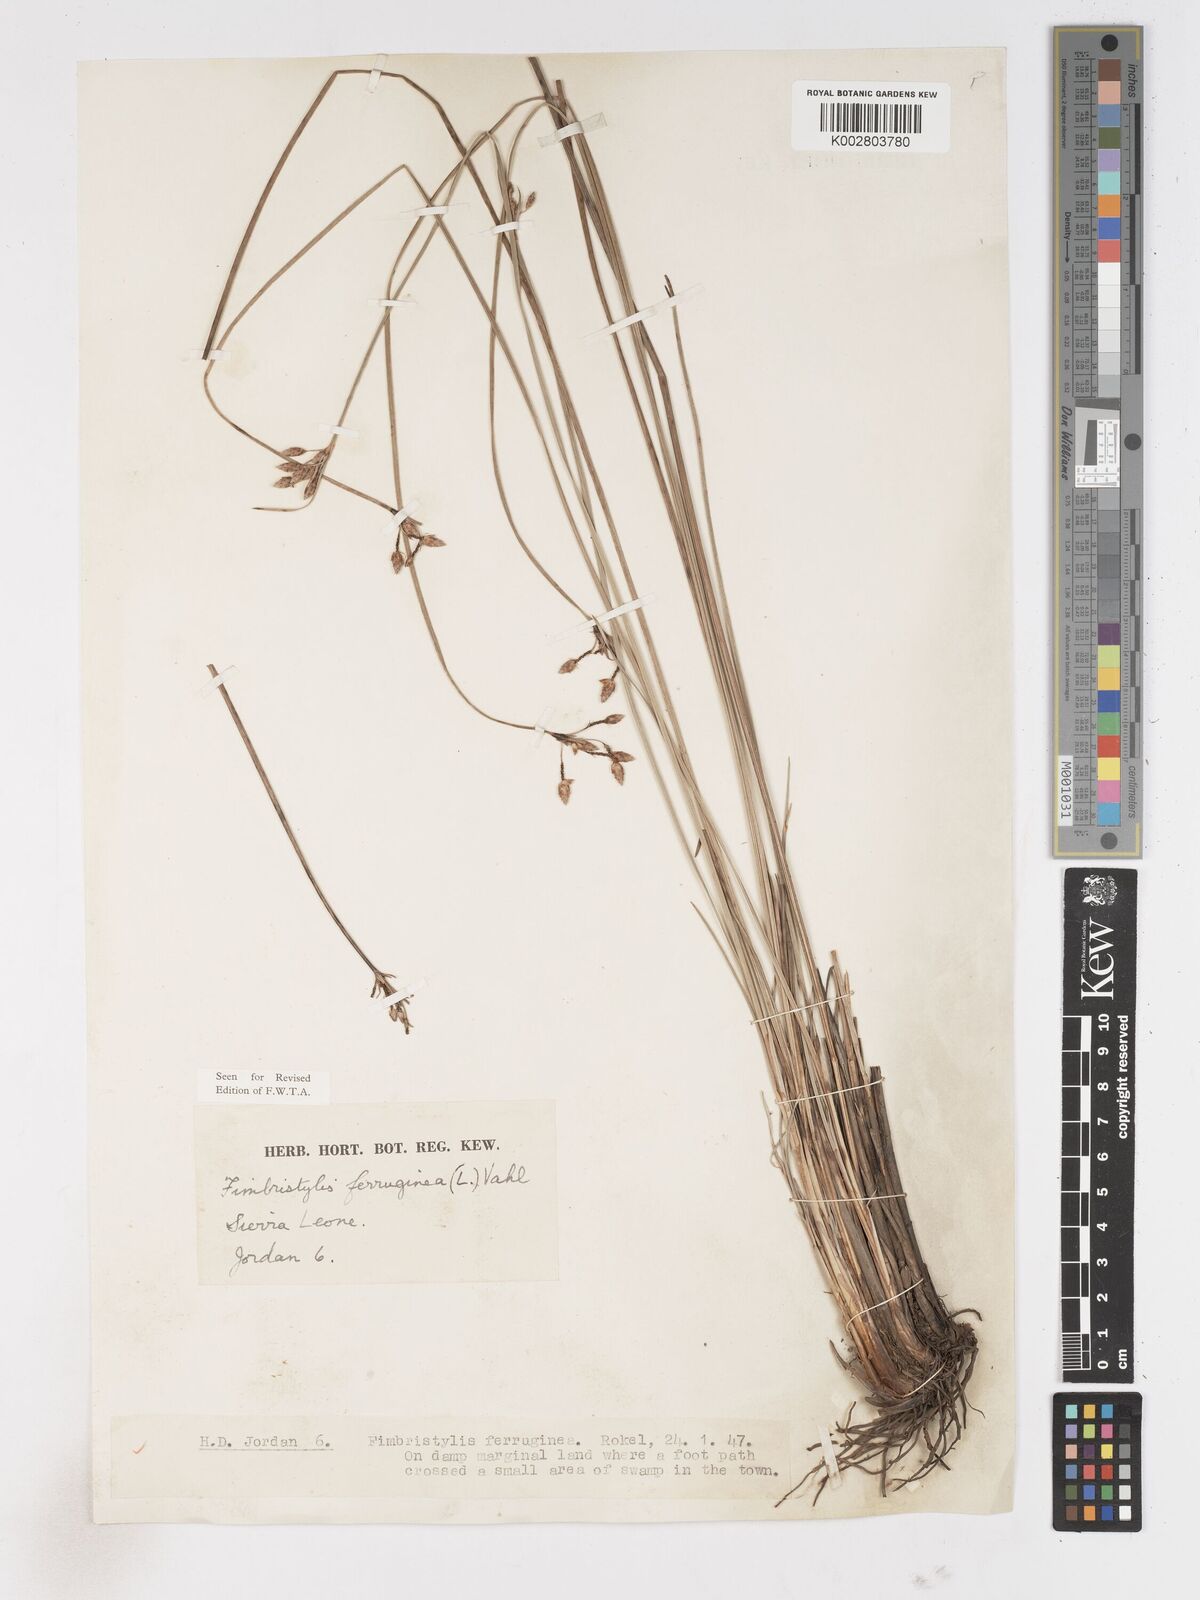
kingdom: Plantae
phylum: Tracheophyta
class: Liliopsida
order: Poales
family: Cyperaceae
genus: Fimbristylis
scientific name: Fimbristylis ferruginea
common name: West indian fimbry
